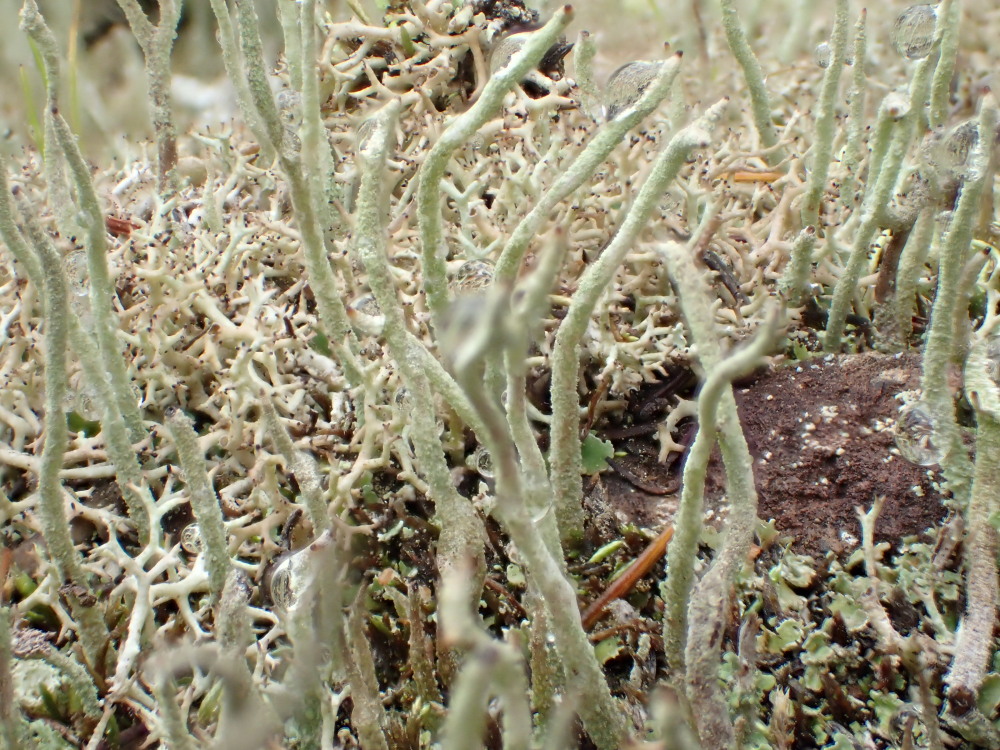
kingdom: Fungi
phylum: Ascomycota
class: Lecanoromycetes
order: Lecanorales
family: Cladoniaceae
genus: Cladonia
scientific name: Cladonia subulata
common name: spids bægerlav
